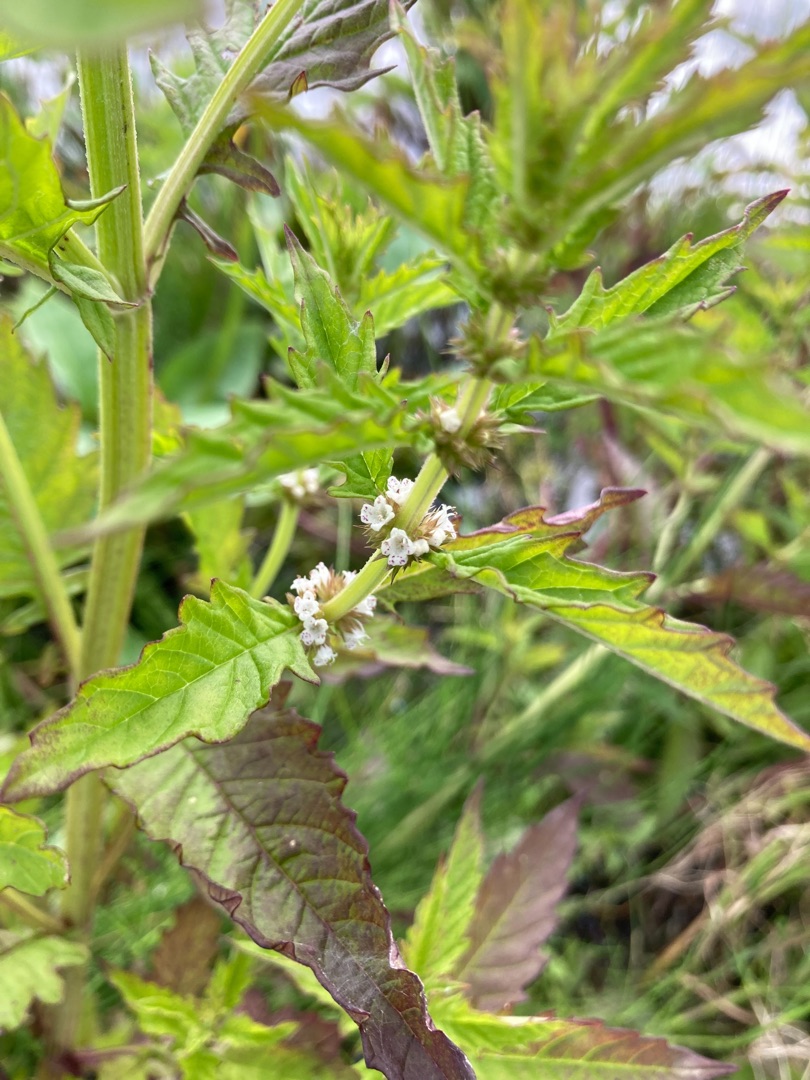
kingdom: Plantae
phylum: Tracheophyta
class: Magnoliopsida
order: Lamiales
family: Lamiaceae
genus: Lycopus
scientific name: Lycopus europaeus
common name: Sværtevæld
